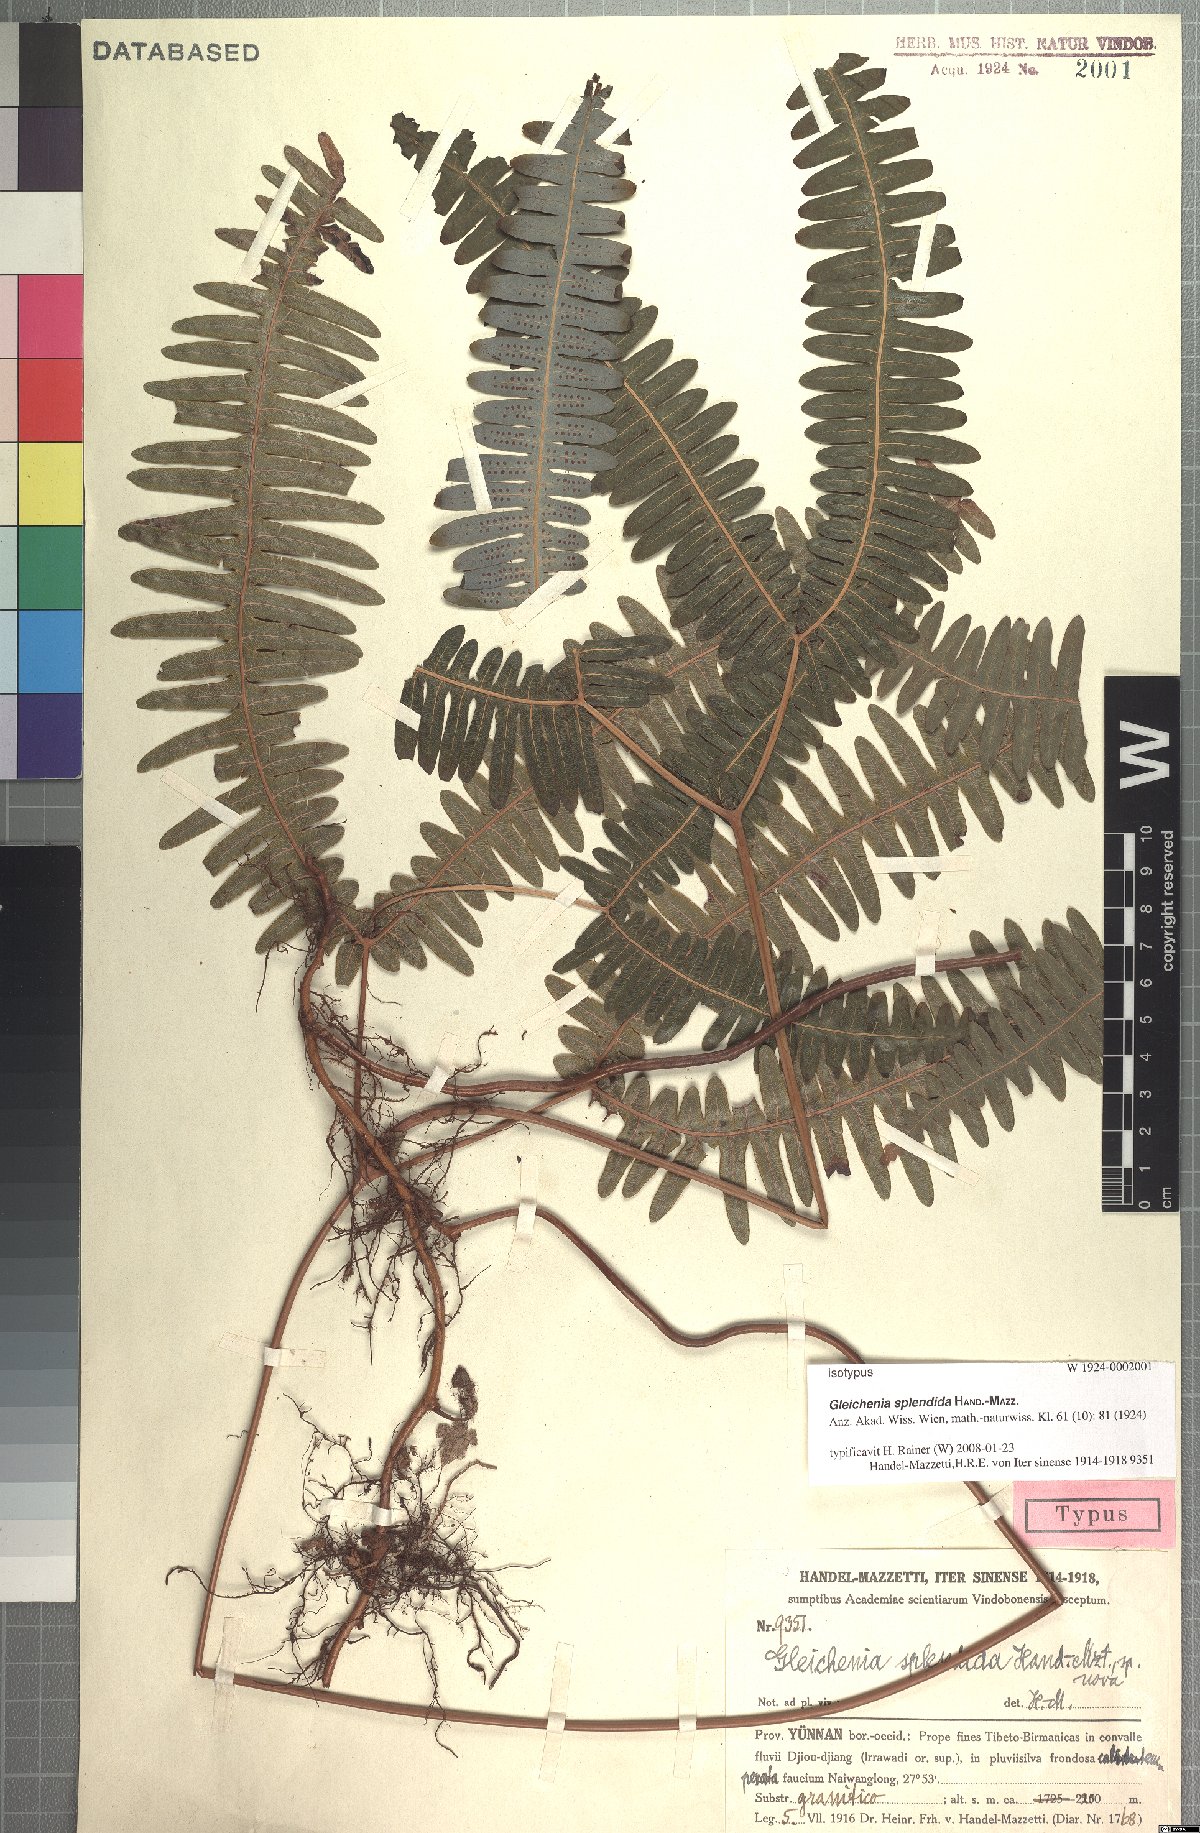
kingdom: Plantae
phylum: Tracheophyta
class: Polypodiopsida
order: Gleicheniales
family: Gleicheniaceae
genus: Dicranopteris
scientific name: Dicranopteris splendida
